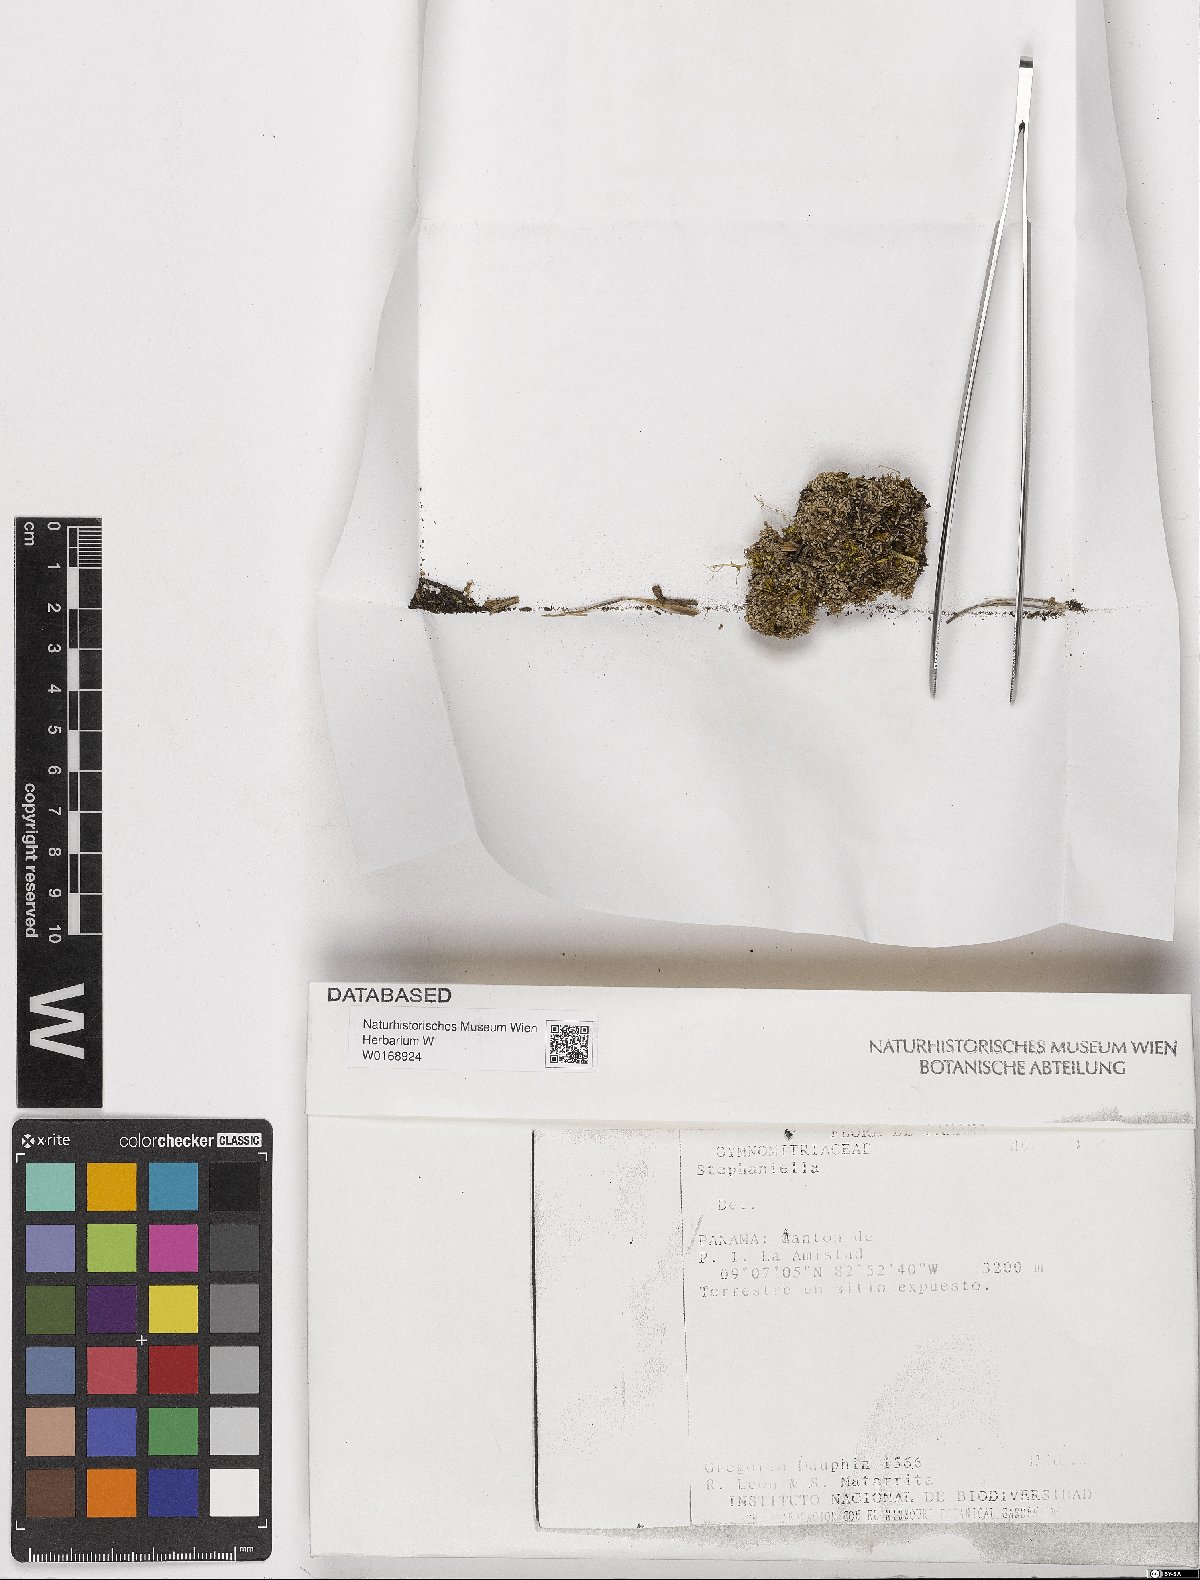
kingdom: Plantae
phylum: Marchantiophyta
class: Jungermanniopsida
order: Jungermanniales
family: Stephaniellaceae
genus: Stephaniella
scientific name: Stephaniella
